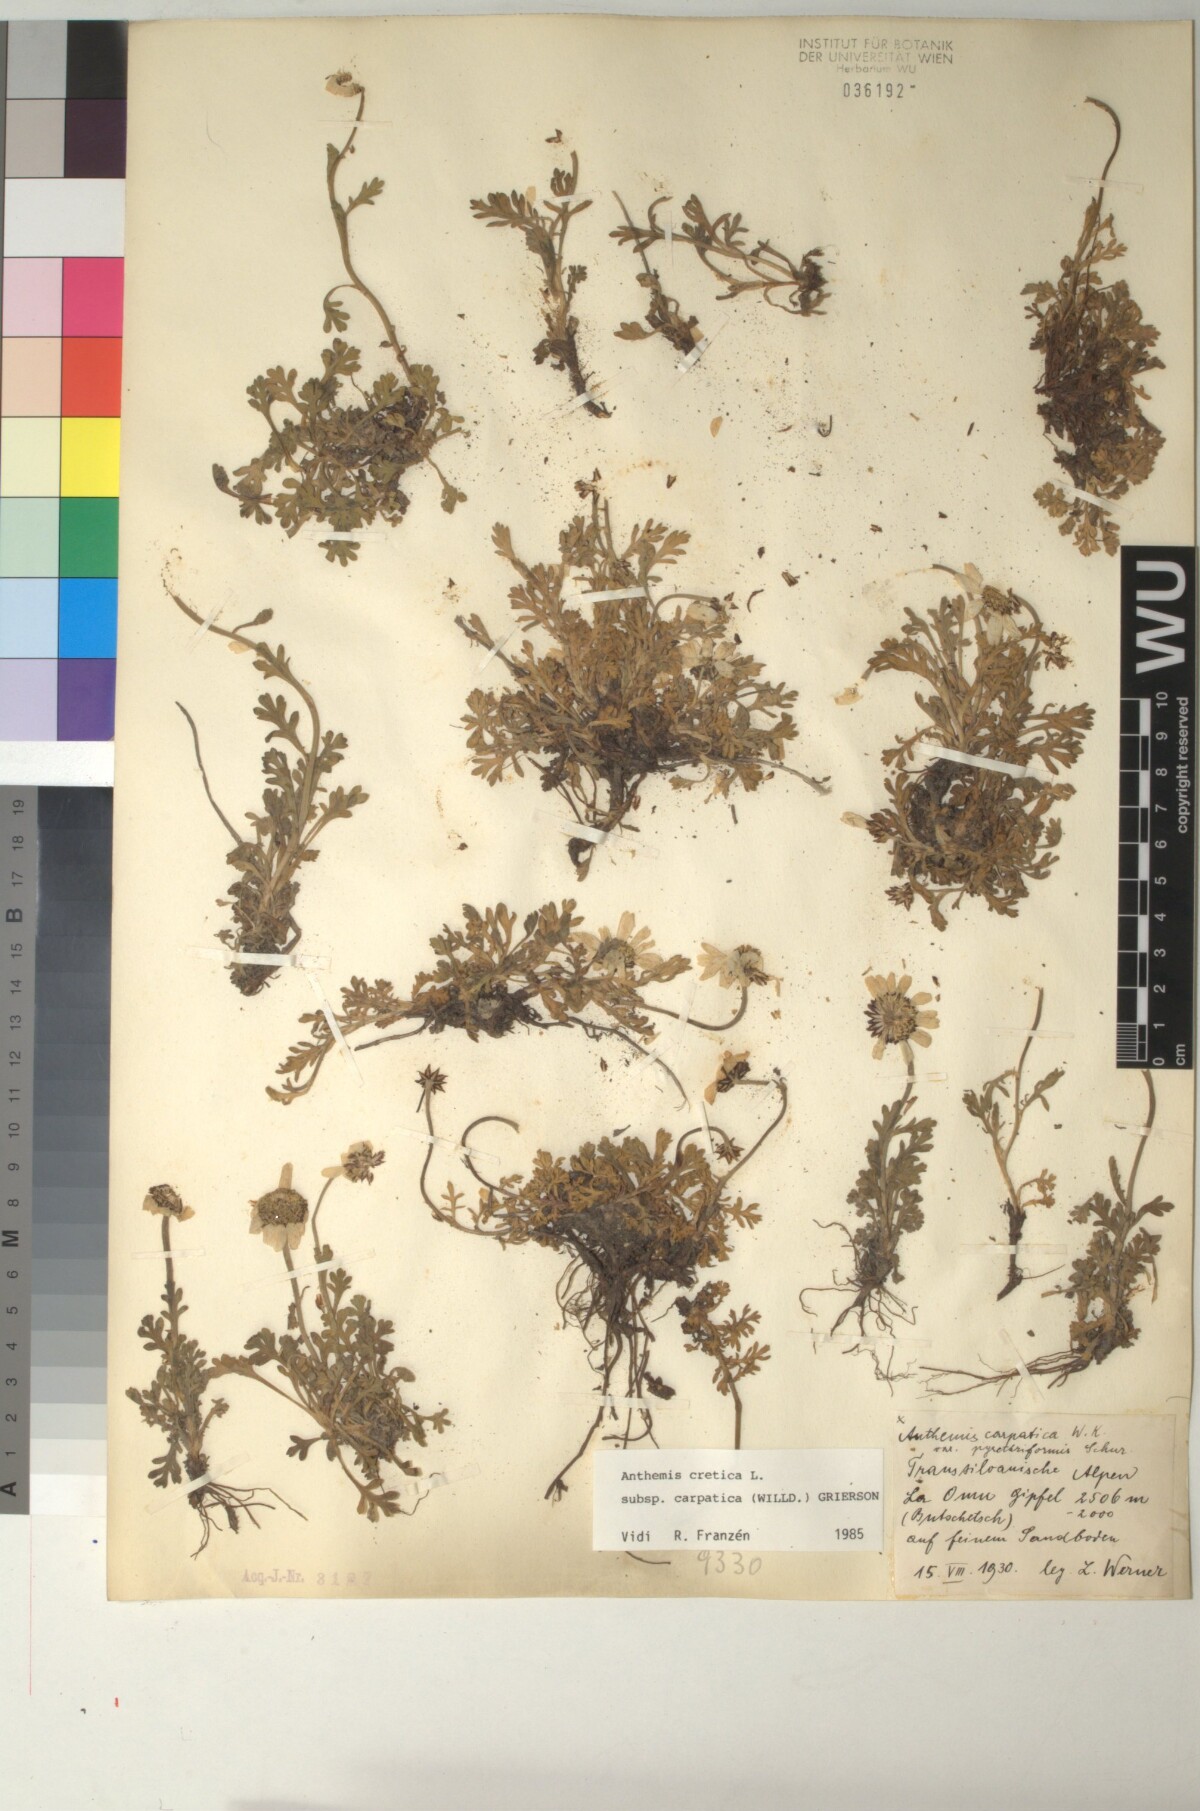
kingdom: Plantae
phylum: Tracheophyta
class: Magnoliopsida
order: Asterales
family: Asteraceae
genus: Anthemis
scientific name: Anthemis cretica
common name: Mountain dog-daisy
